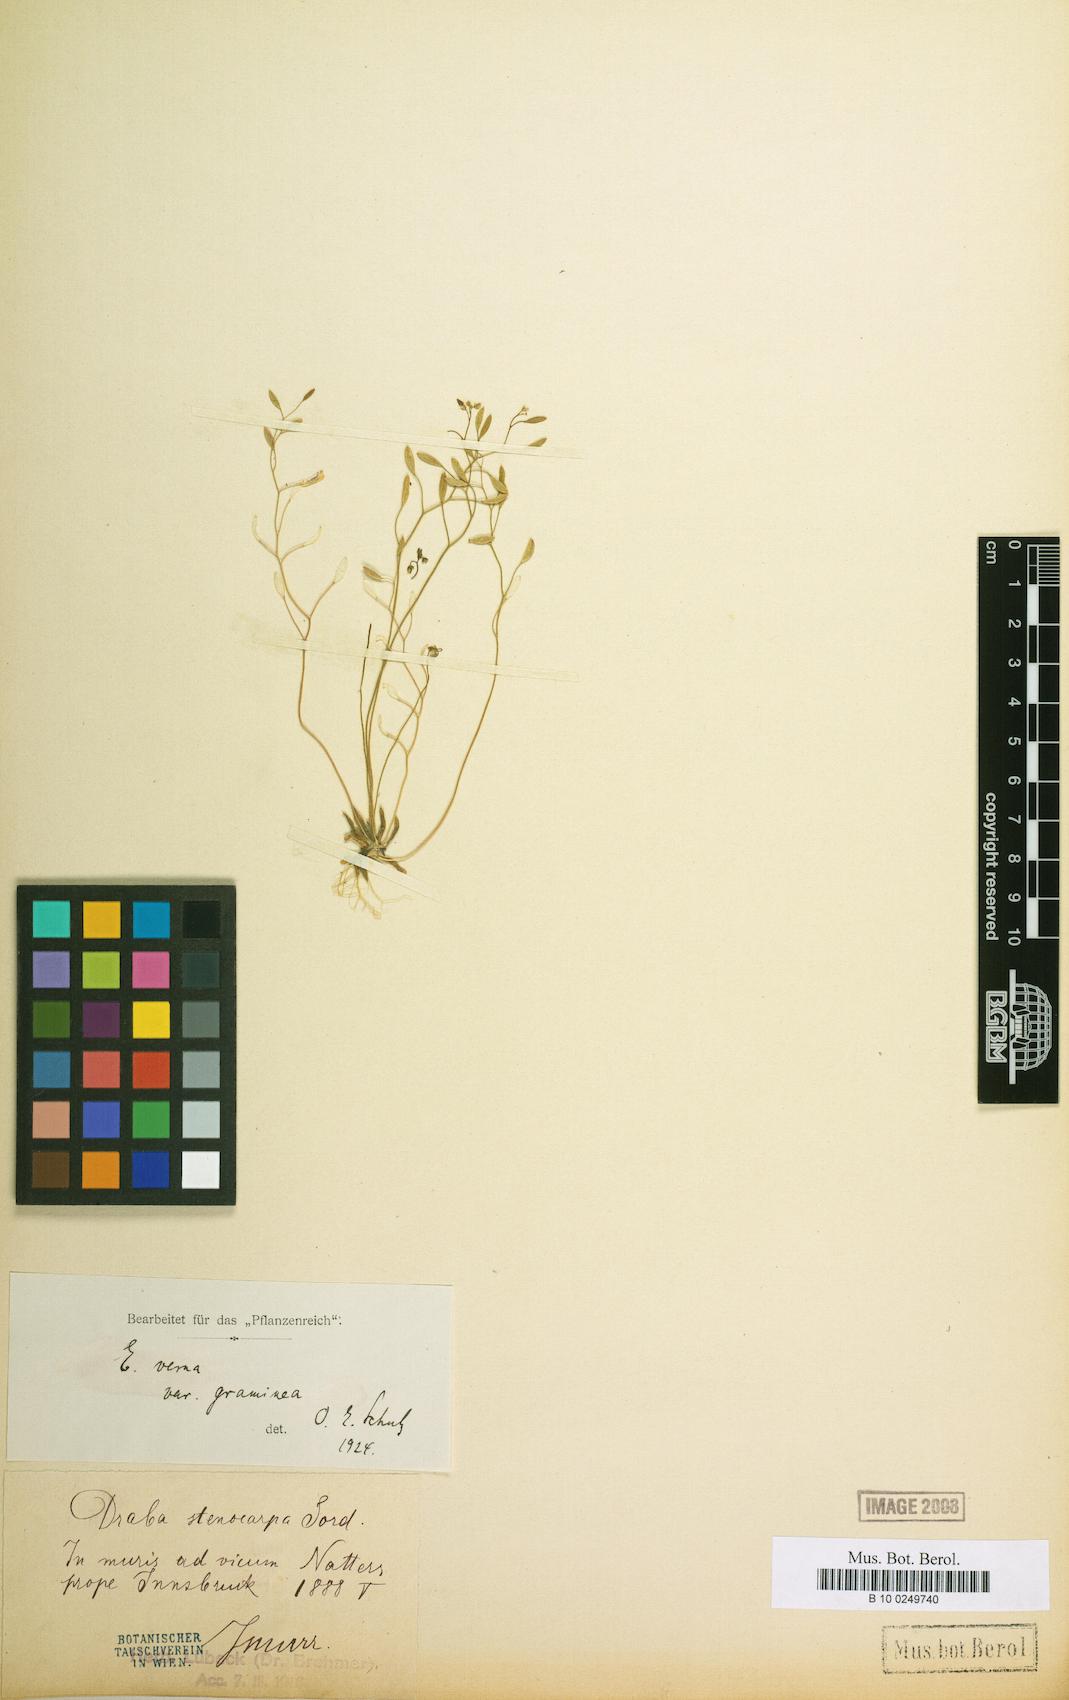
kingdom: Plantae
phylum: Tracheophyta
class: Magnoliopsida
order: Brassicales
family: Brassicaceae
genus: Draba
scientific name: Draba verna
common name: Spring draba
